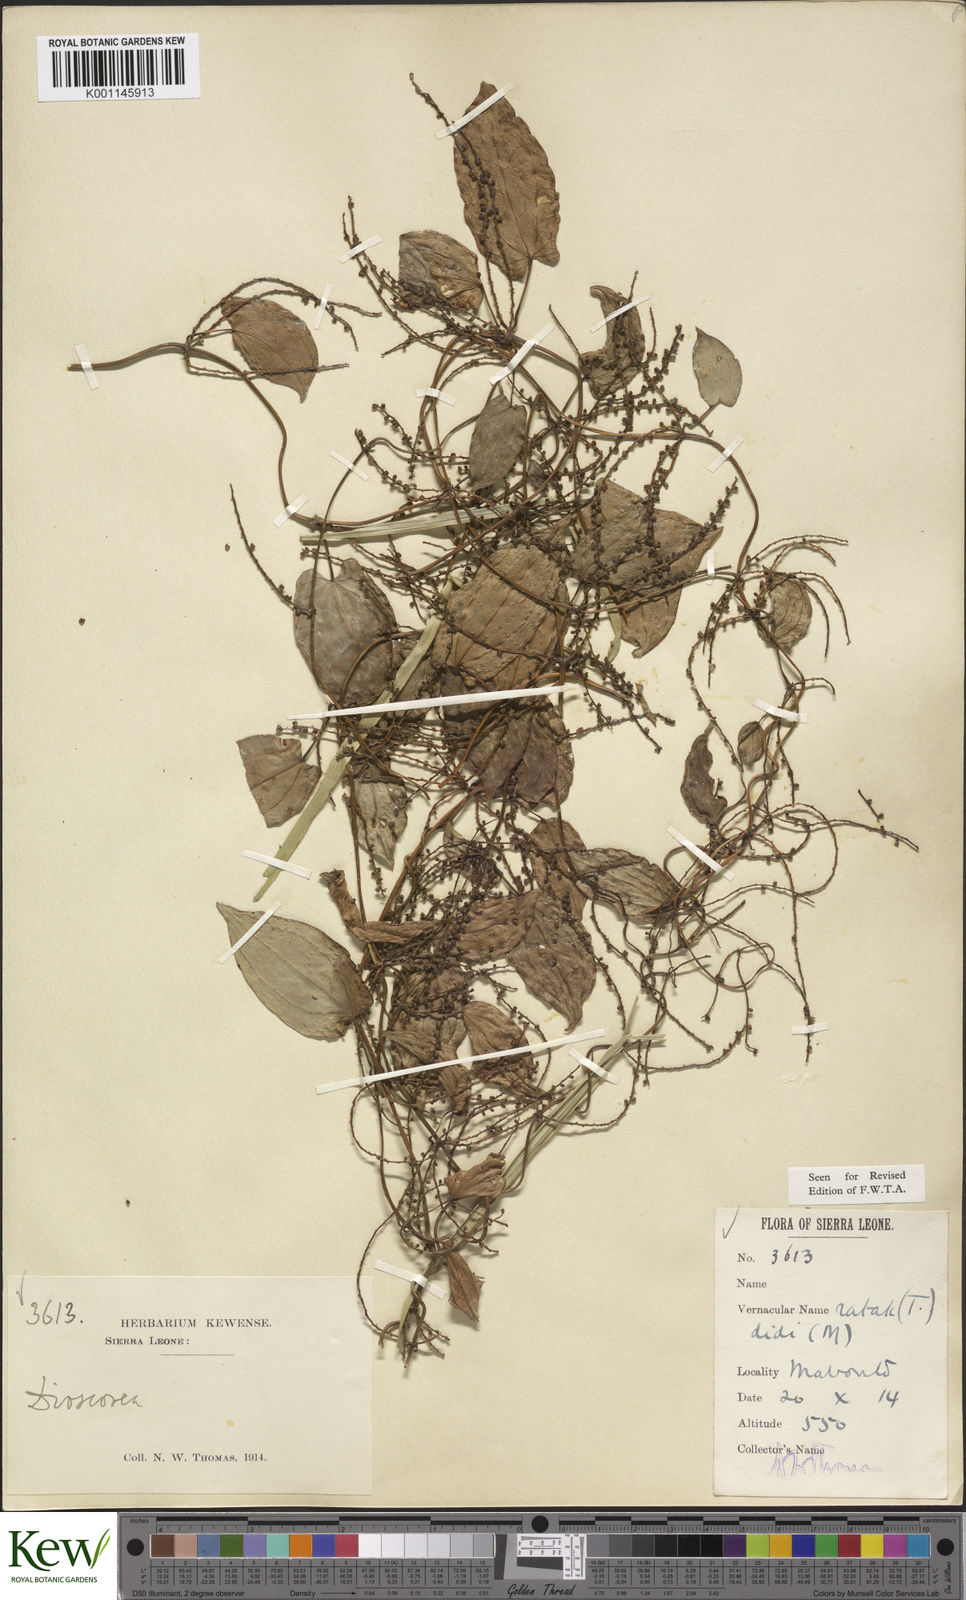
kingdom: Plantae
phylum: Tracheophyta
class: Liliopsida
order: Dioscoreales
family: Dioscoreaceae
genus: Dioscorea
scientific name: Dioscorea togoensis
